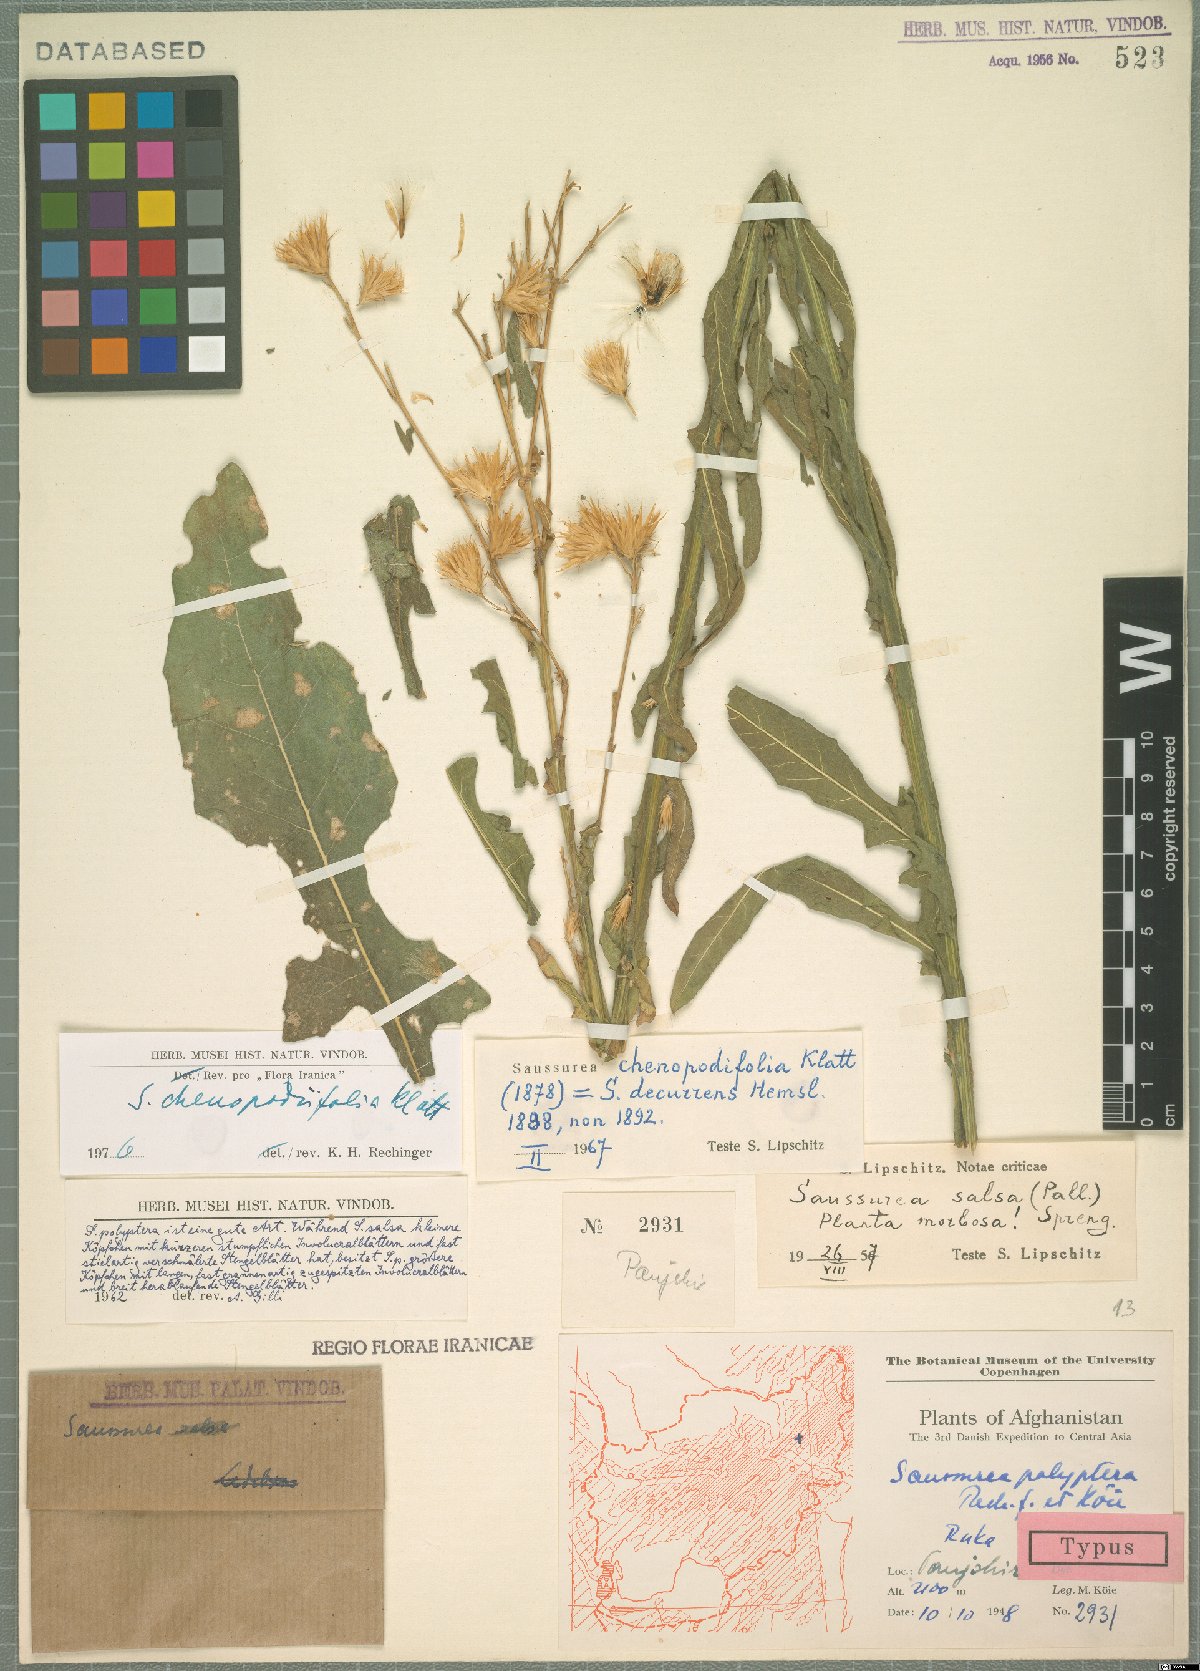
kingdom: Plantae
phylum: Tracheophyta
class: Magnoliopsida
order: Asterales
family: Asteraceae
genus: Jurinea
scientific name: Jurinea chenopodiifolia
